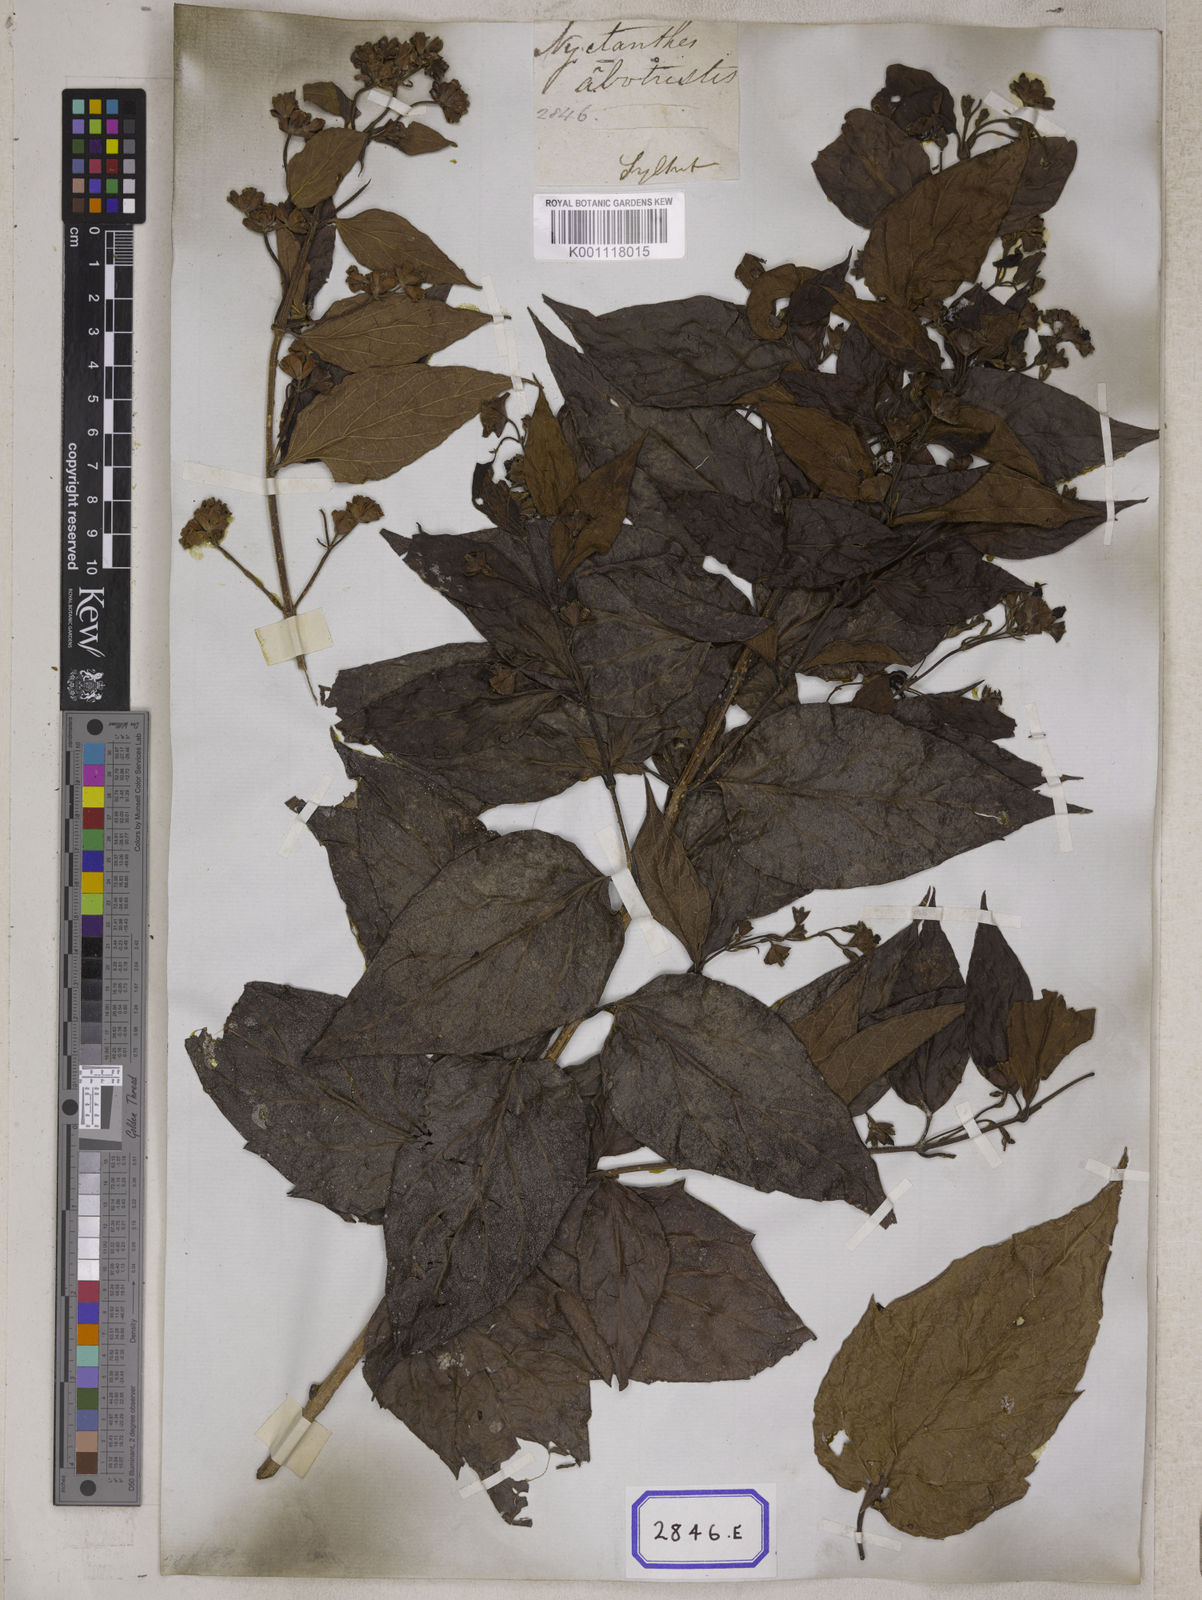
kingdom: Plantae
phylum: Tracheophyta
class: Magnoliopsida
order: Lamiales
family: Oleaceae
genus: Nyctanthes
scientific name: Nyctanthes arbor-tristis
